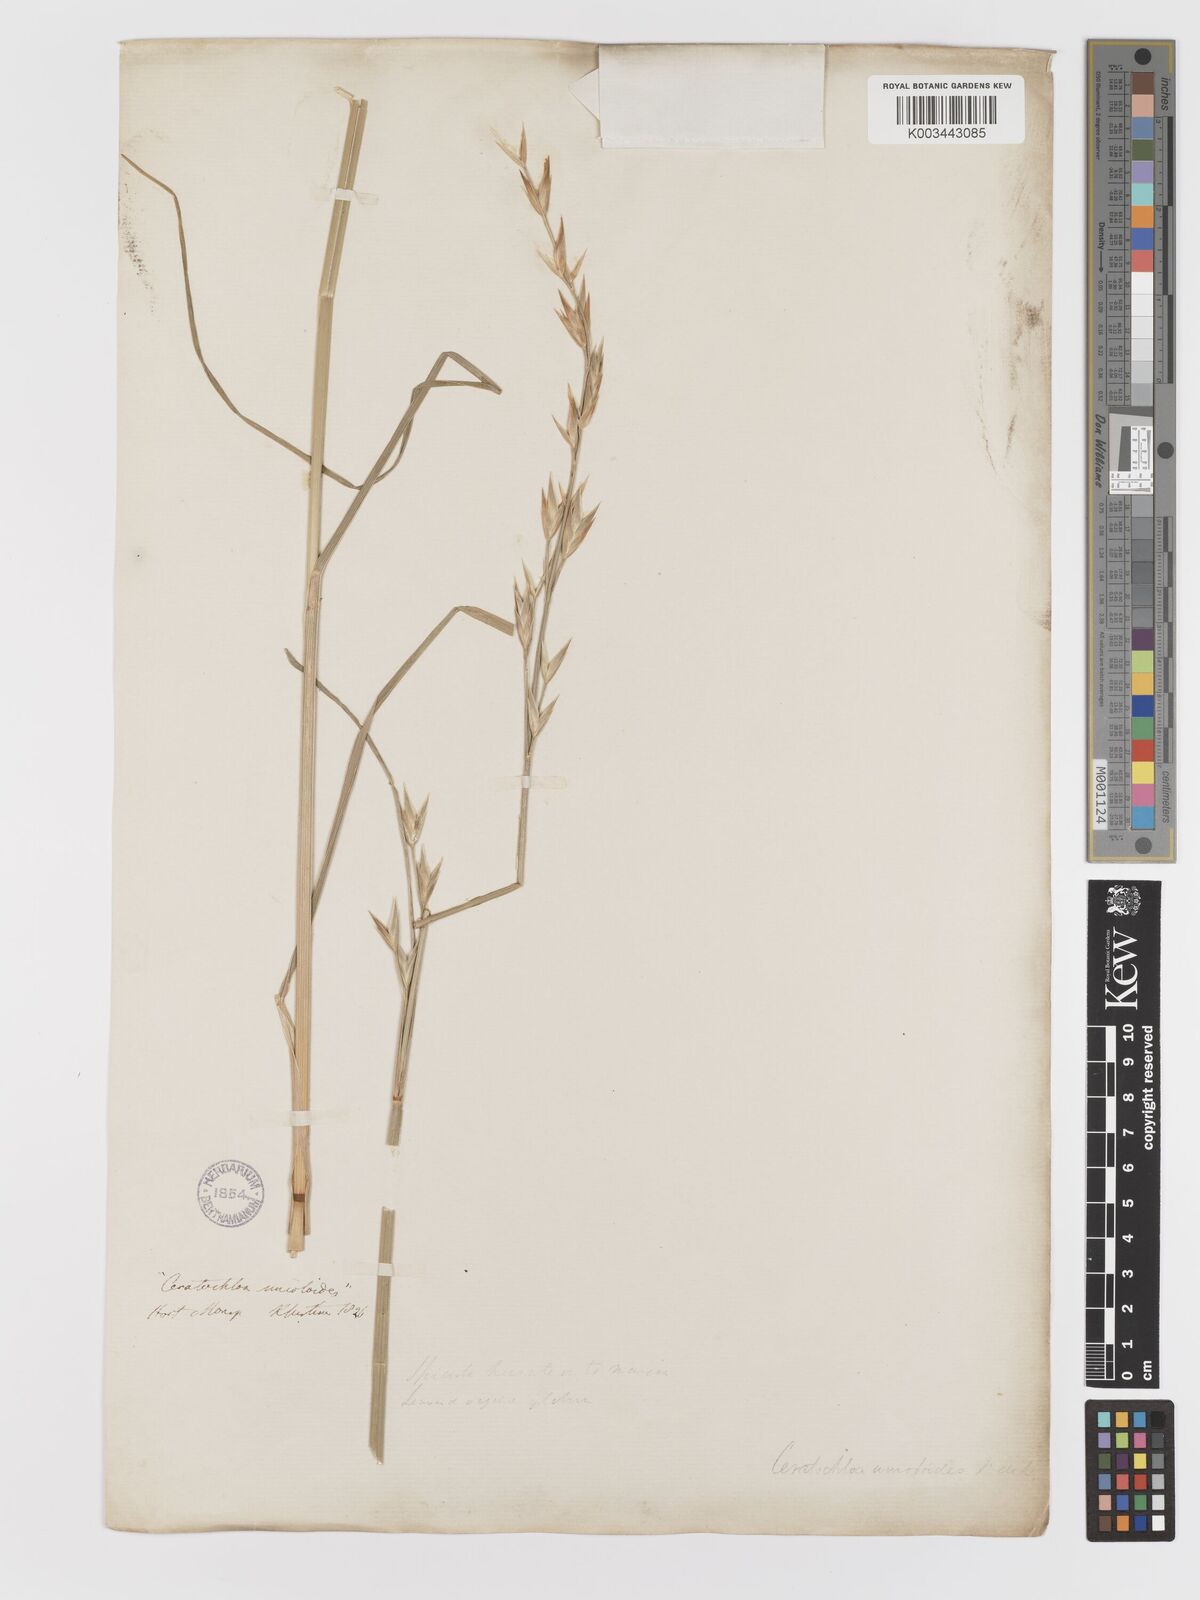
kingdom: Plantae
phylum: Tracheophyta
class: Liliopsida
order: Poales
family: Poaceae
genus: Bromus
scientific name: Bromus catharticus
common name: Rescuegrass
